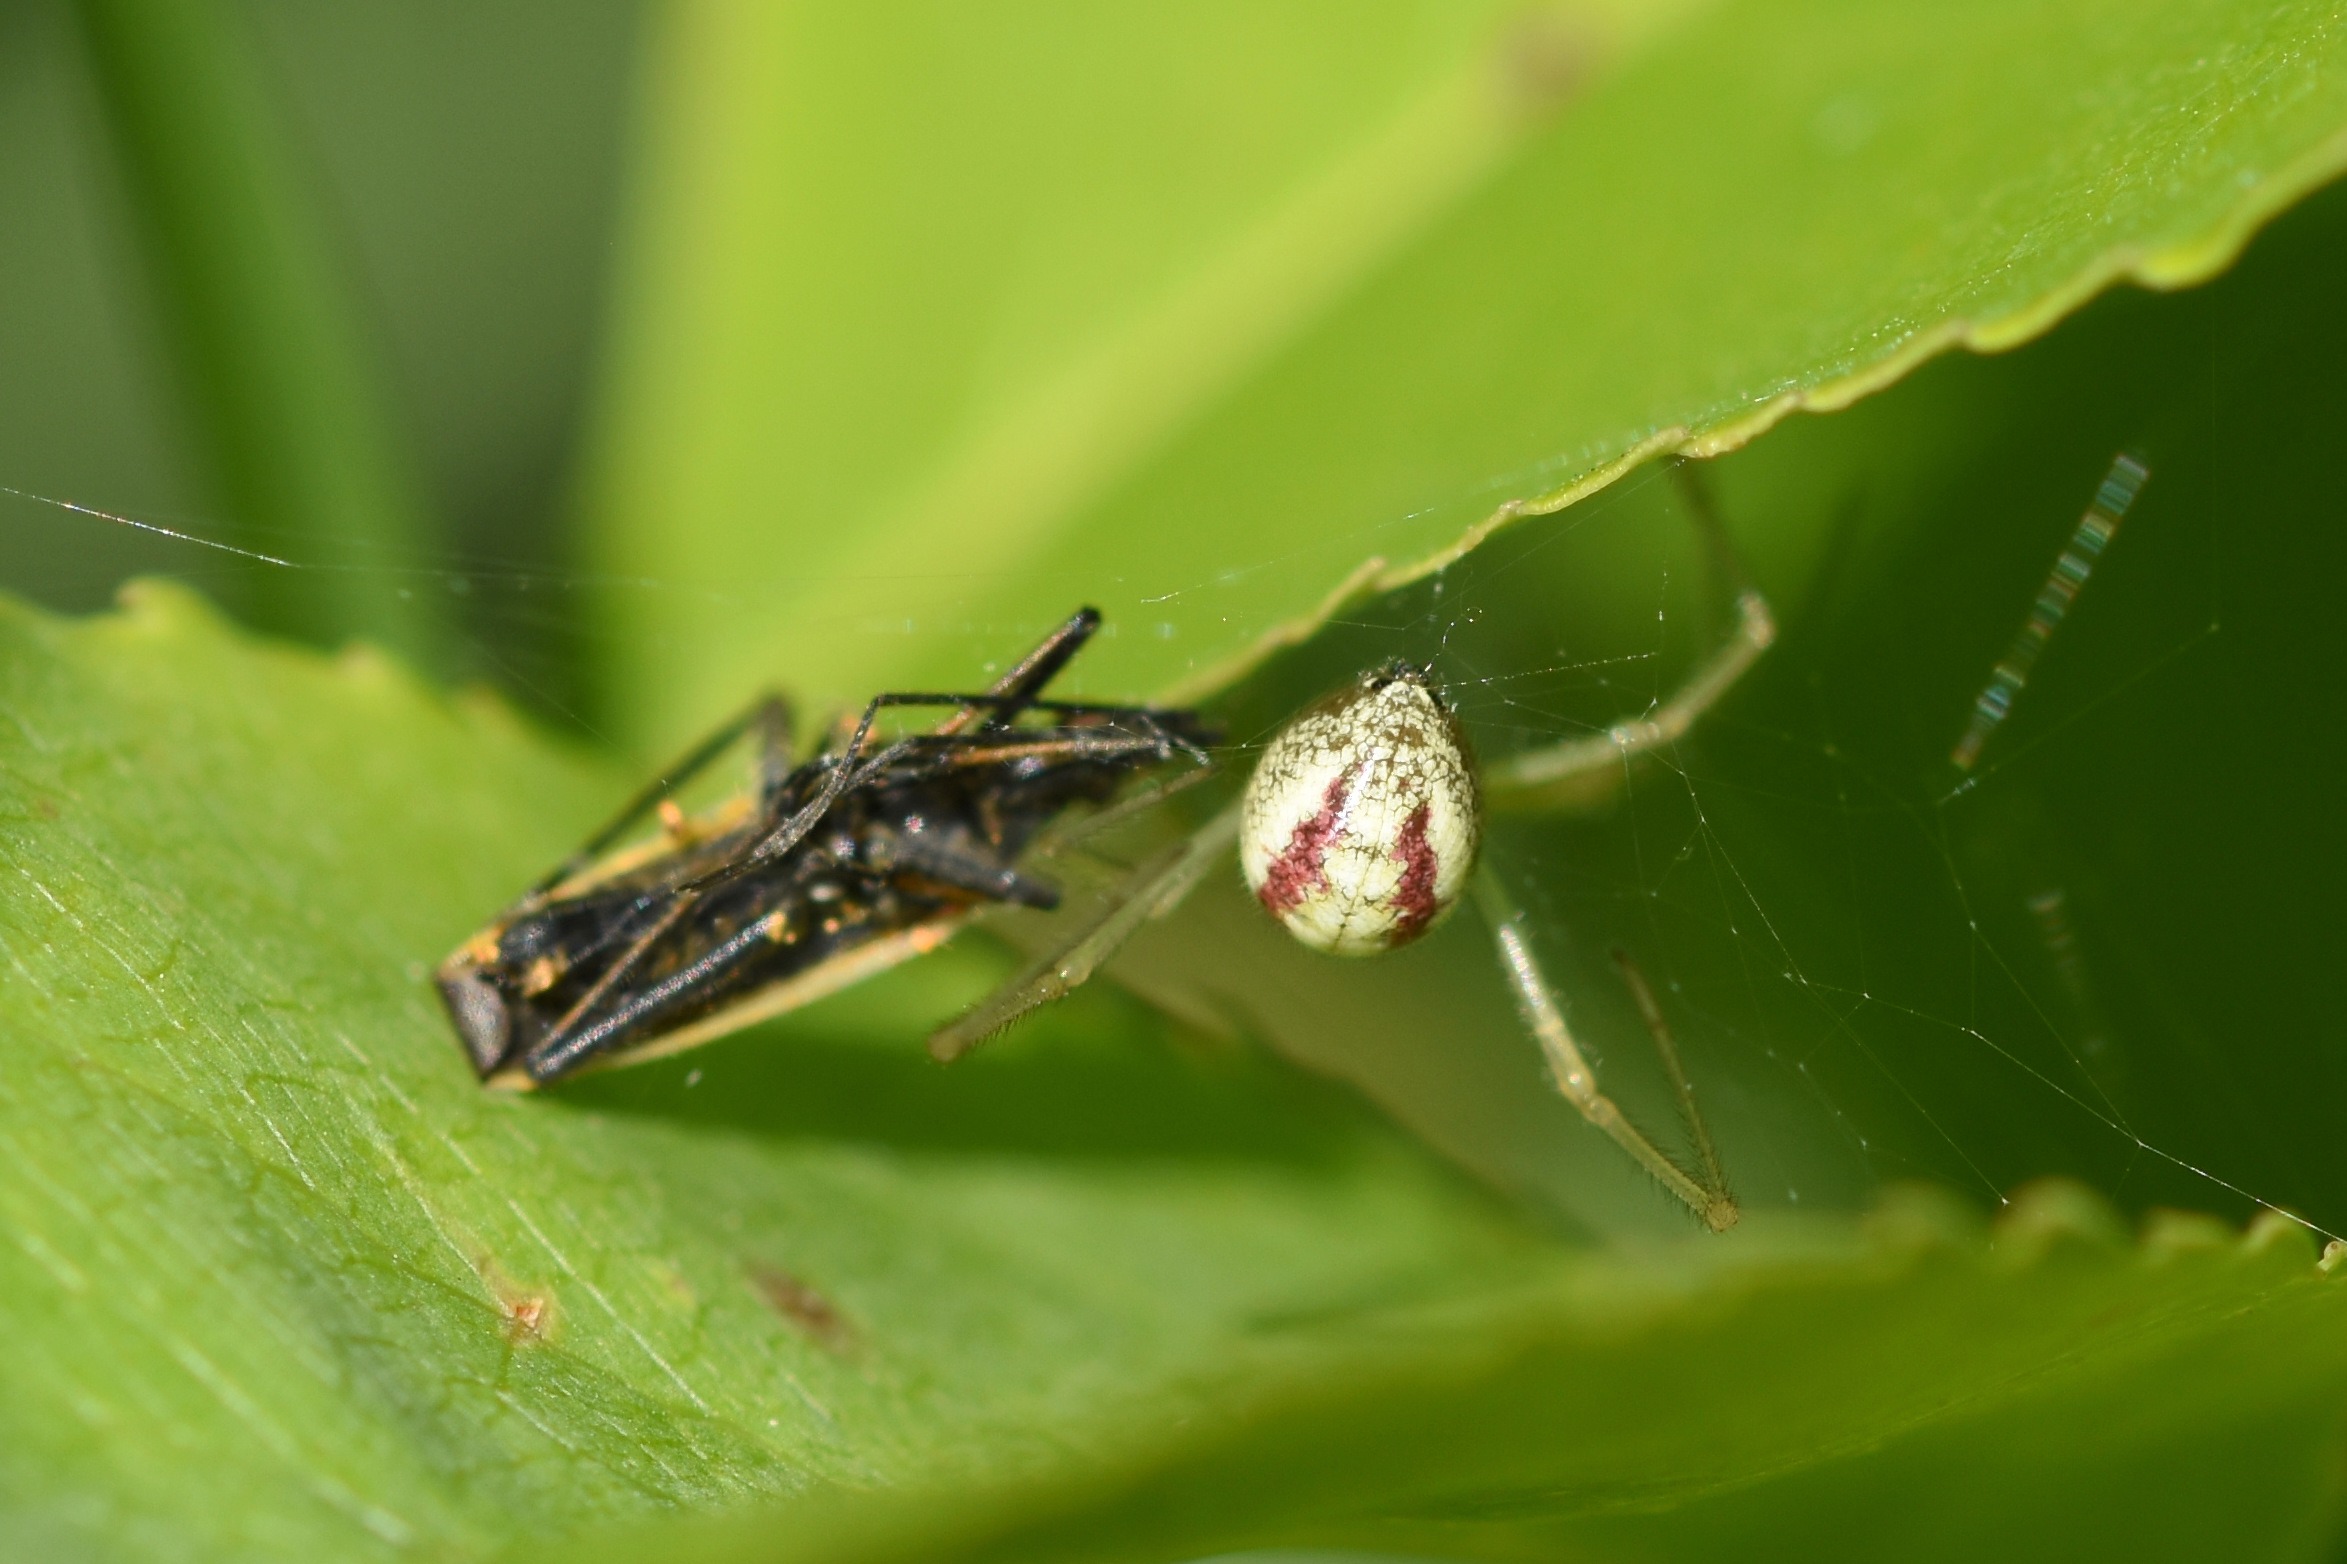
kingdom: Animalia
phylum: Arthropoda
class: Arachnida
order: Araneae
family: Theridiidae
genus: Enoplognatha
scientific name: Enoplognatha
